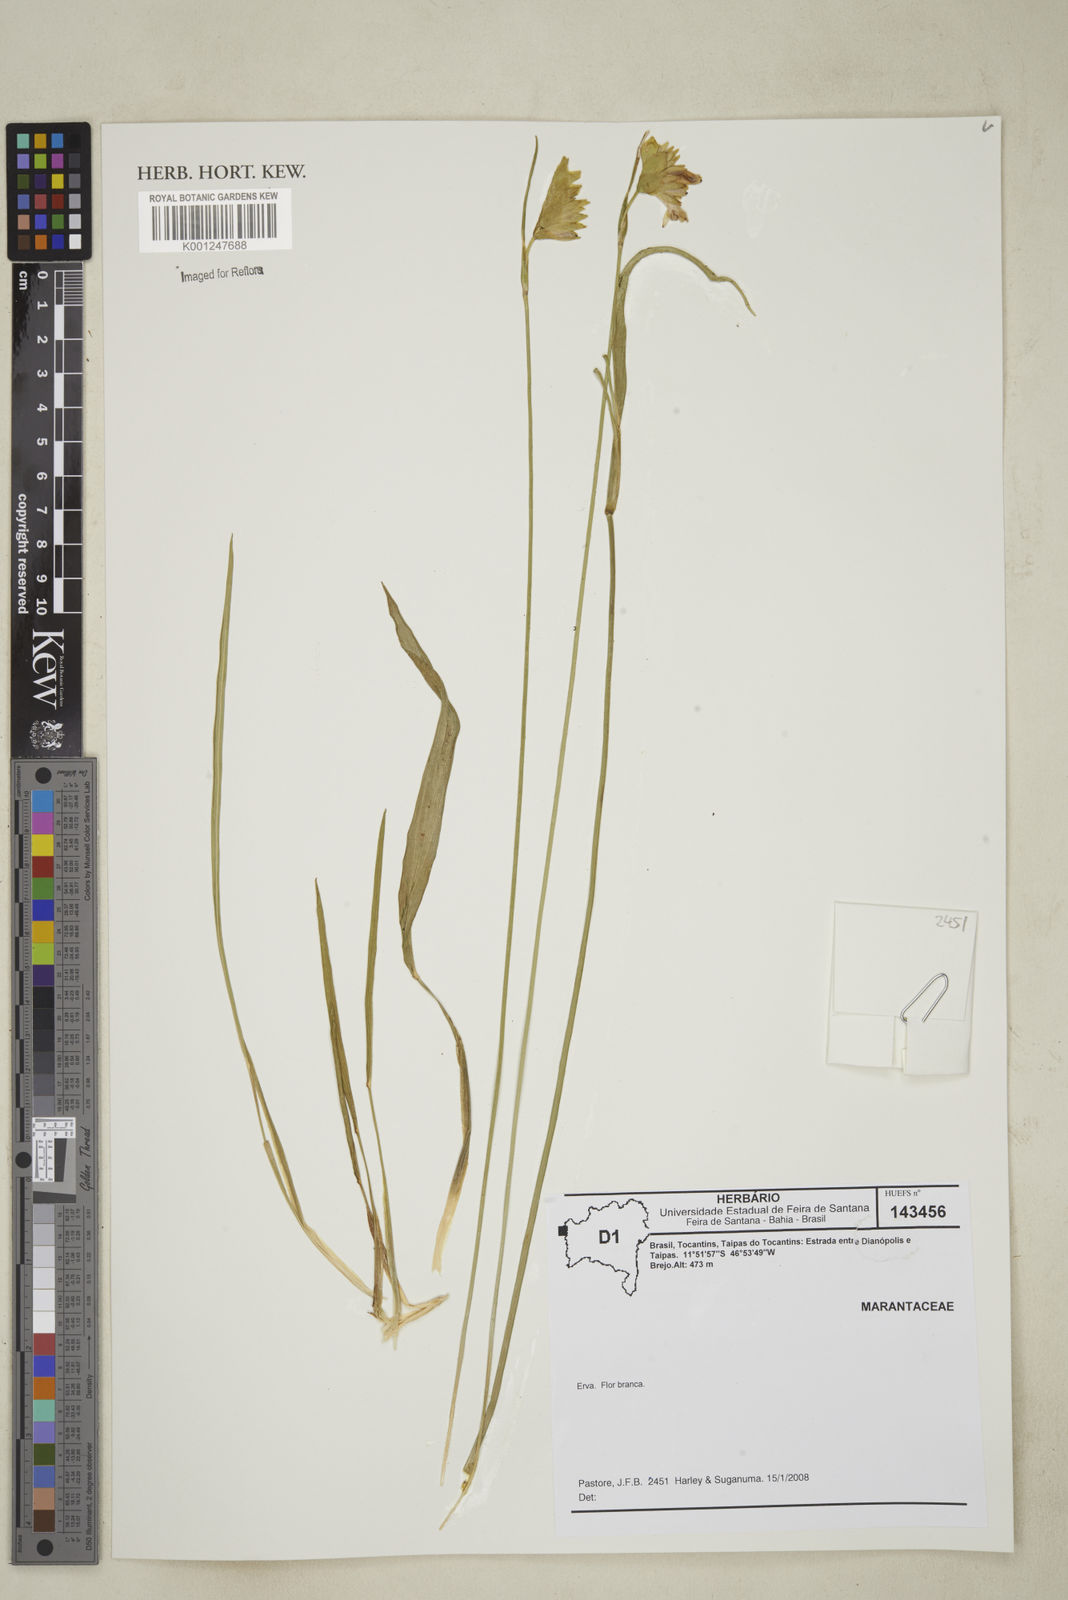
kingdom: Plantae
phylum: Tracheophyta
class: Liliopsida
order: Zingiberales
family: Marantaceae
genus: Myrosma
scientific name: Myrosma
